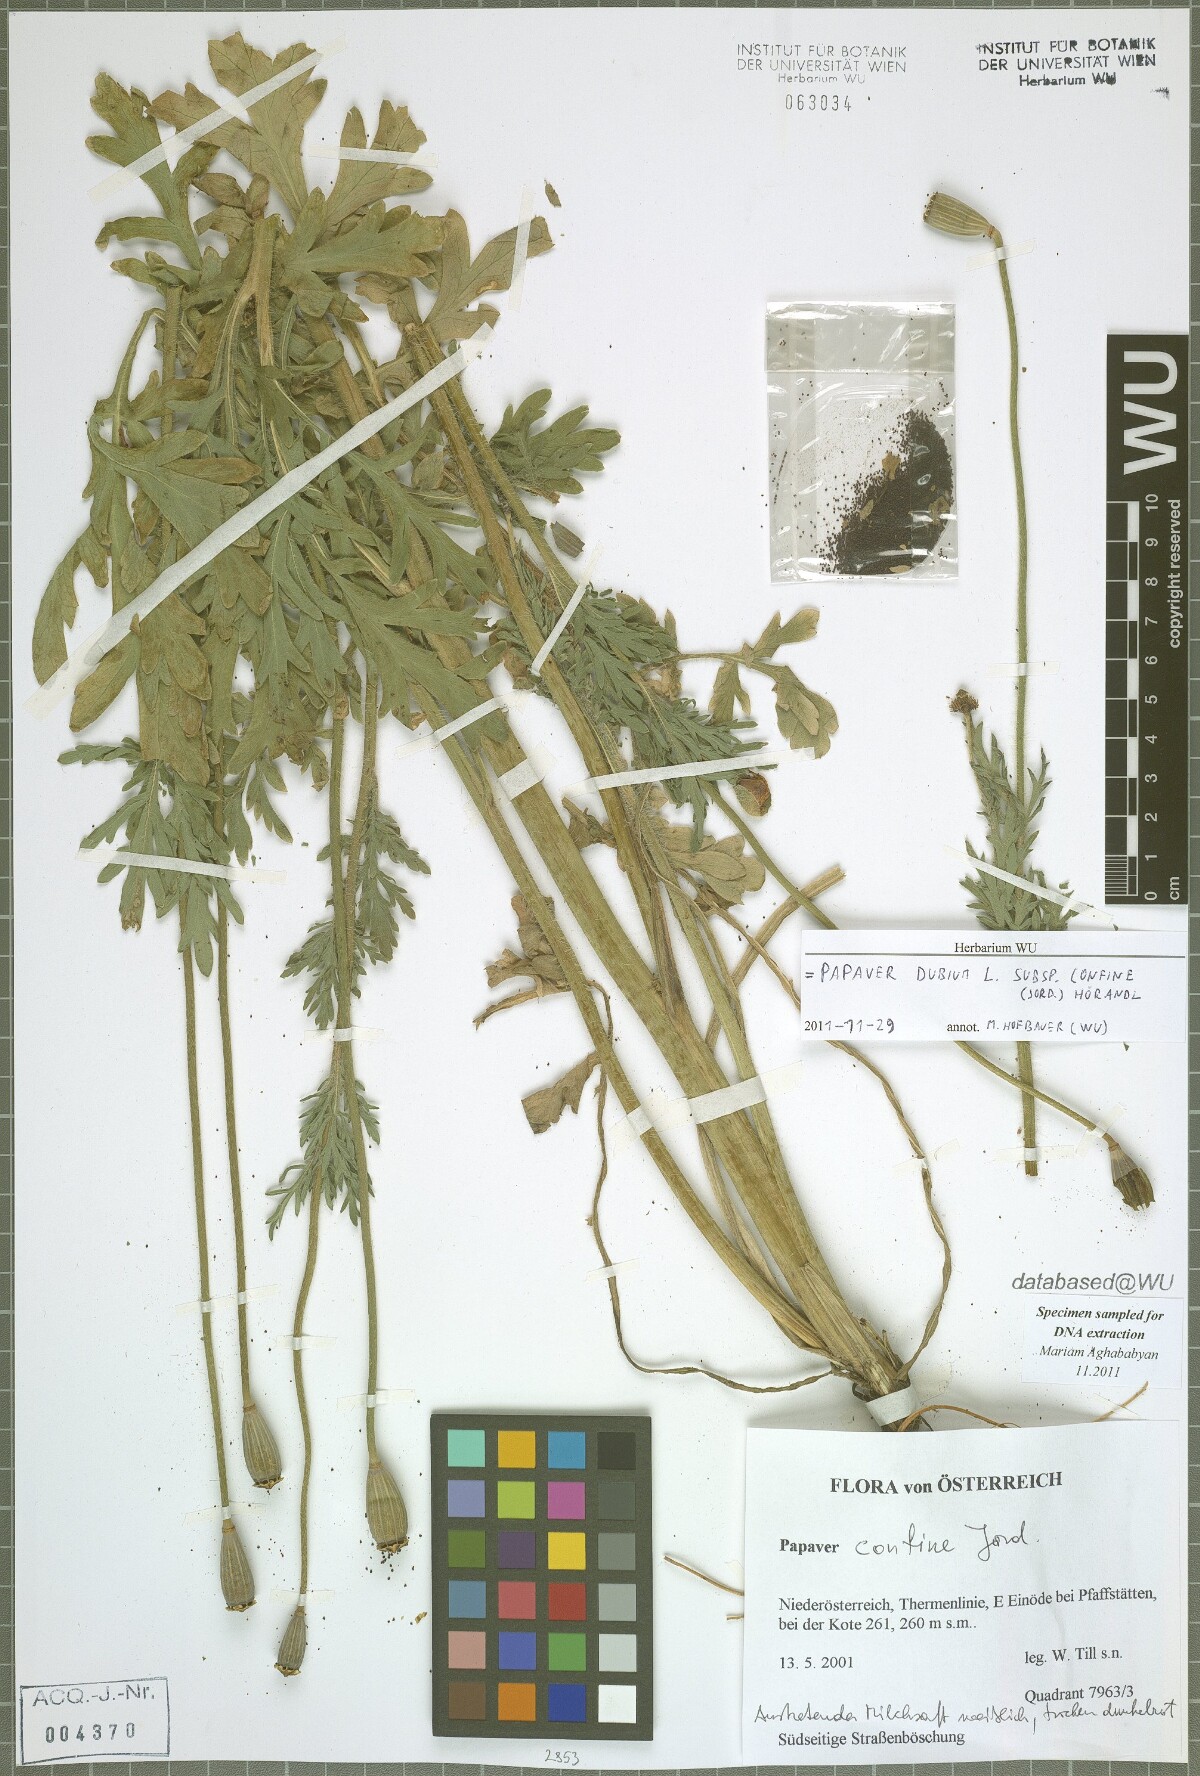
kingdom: Plantae
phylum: Tracheophyta
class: Magnoliopsida
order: Ranunculales
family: Papaveraceae
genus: Papaver
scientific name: Papaver confine
